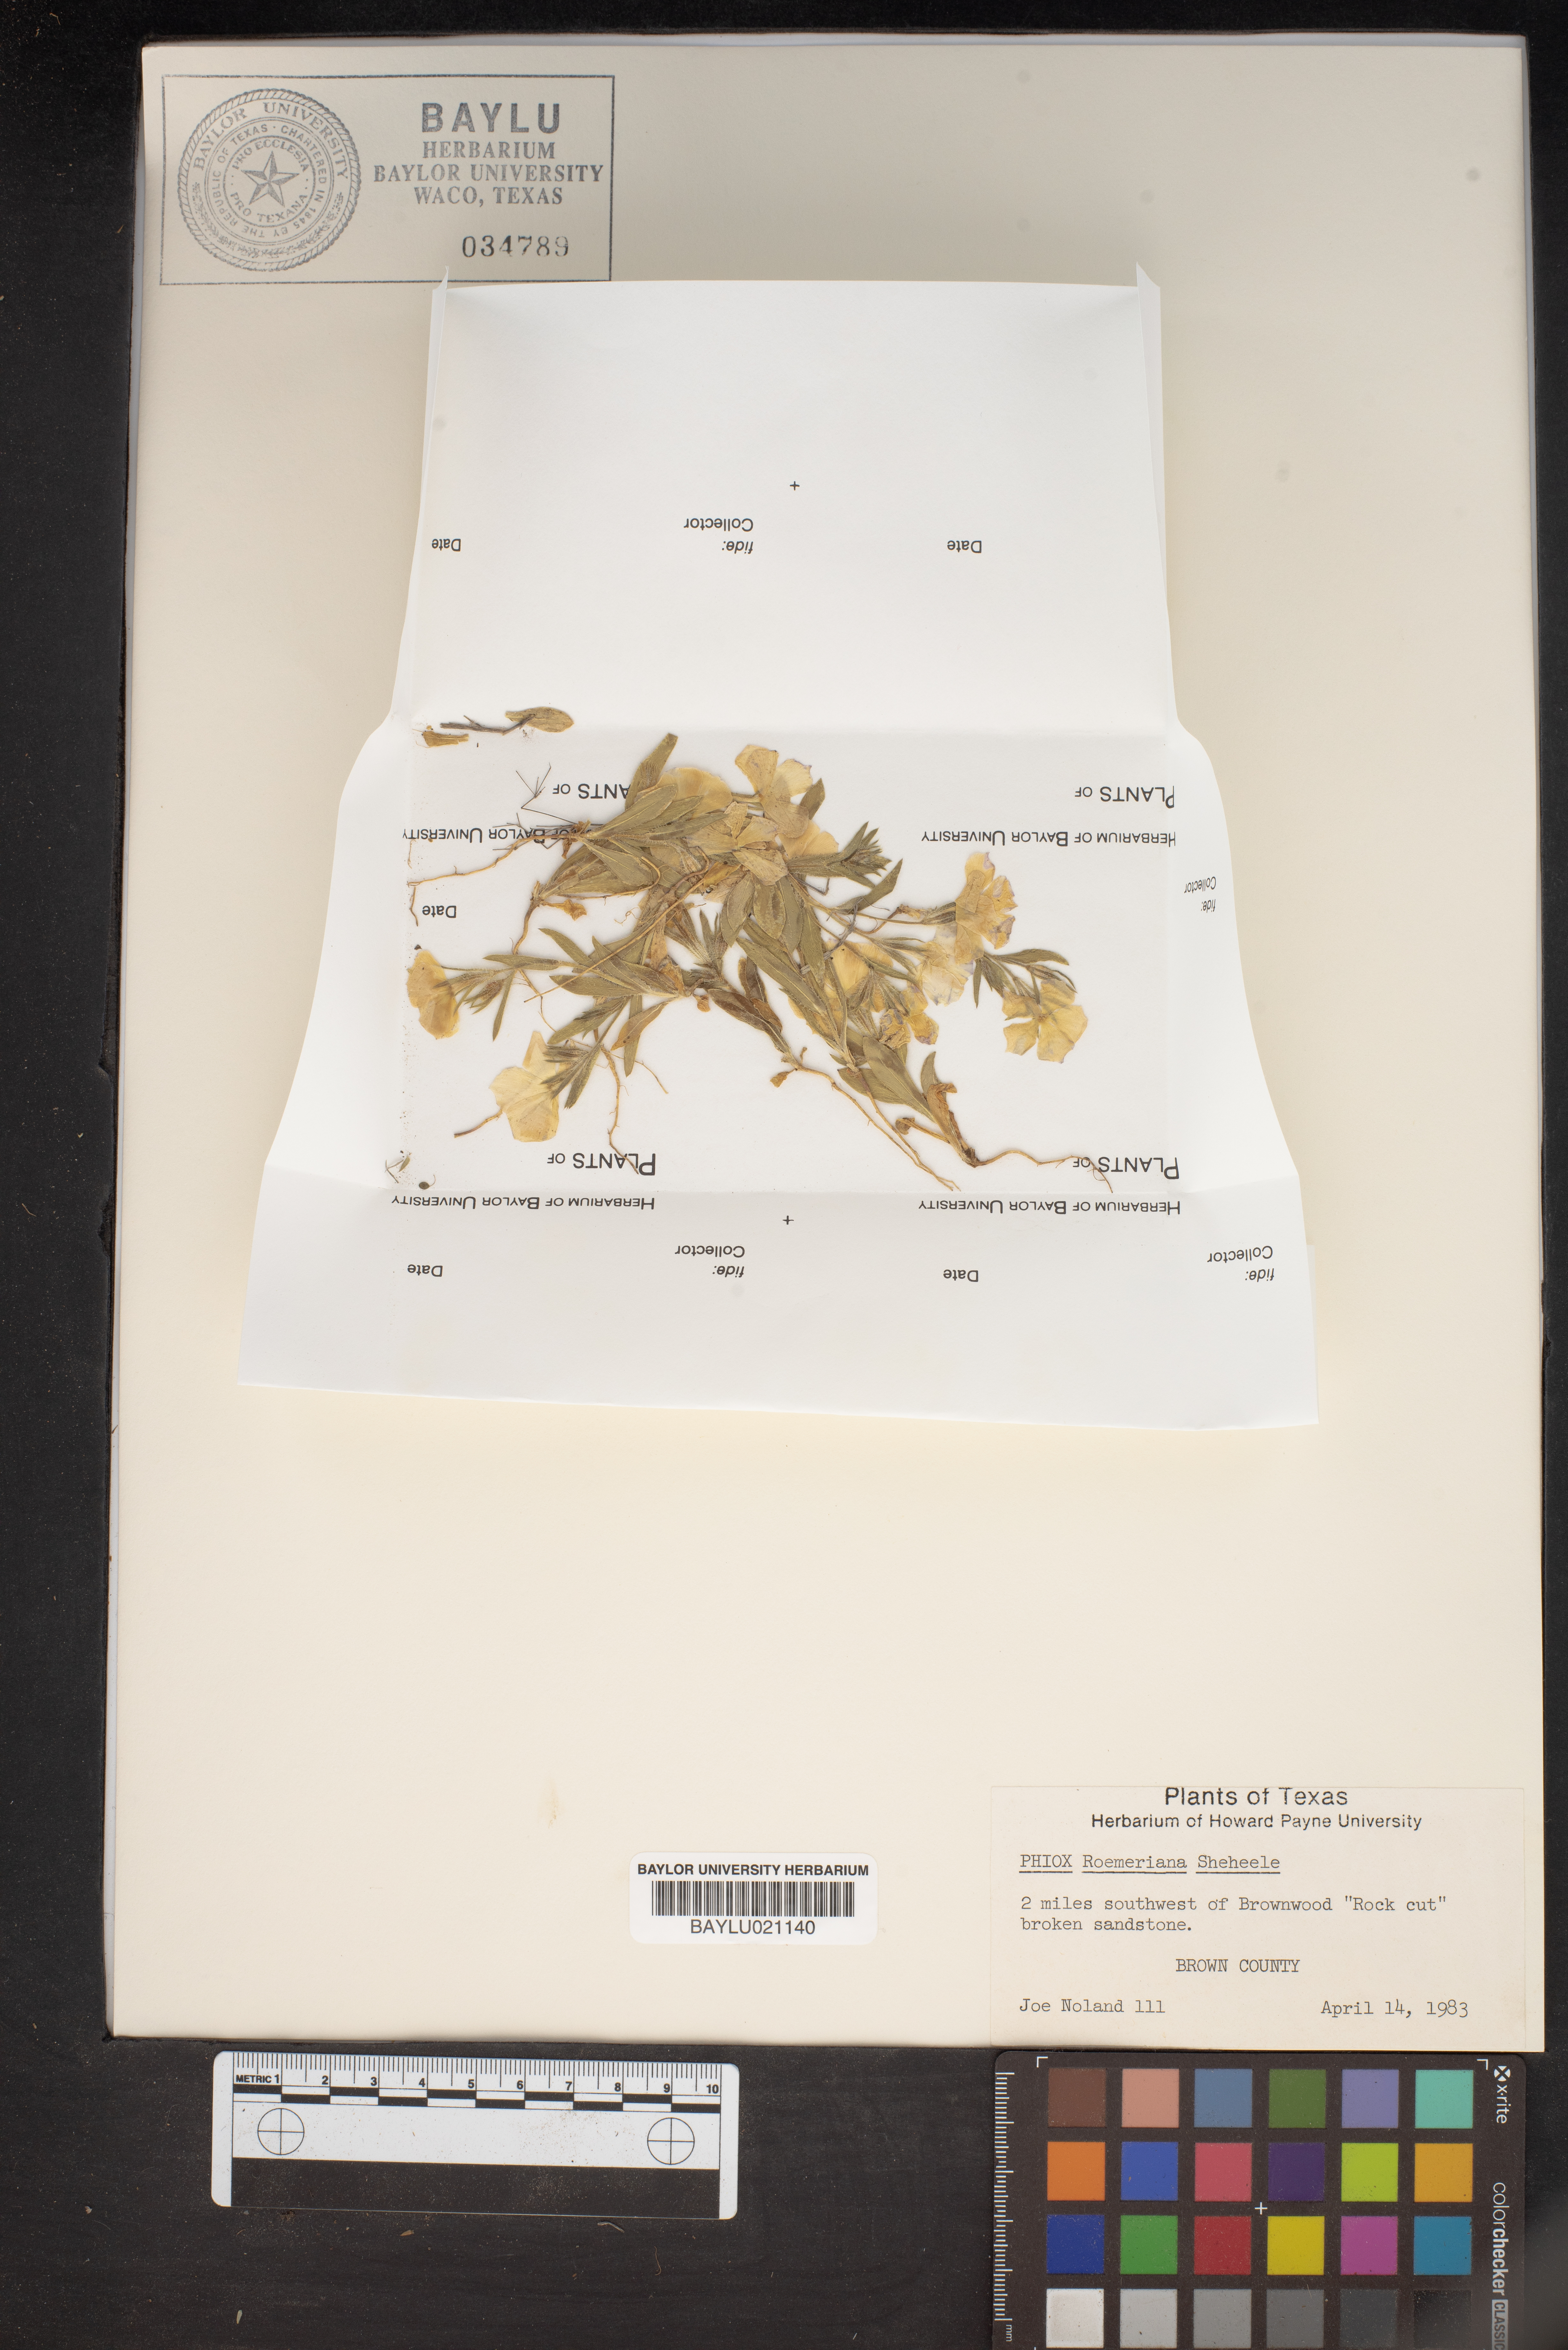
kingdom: Plantae
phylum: Tracheophyta
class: Magnoliopsida
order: Ericales
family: Polemoniaceae
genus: Phlox
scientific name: Phlox roemeriana
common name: Roemer's phlox
